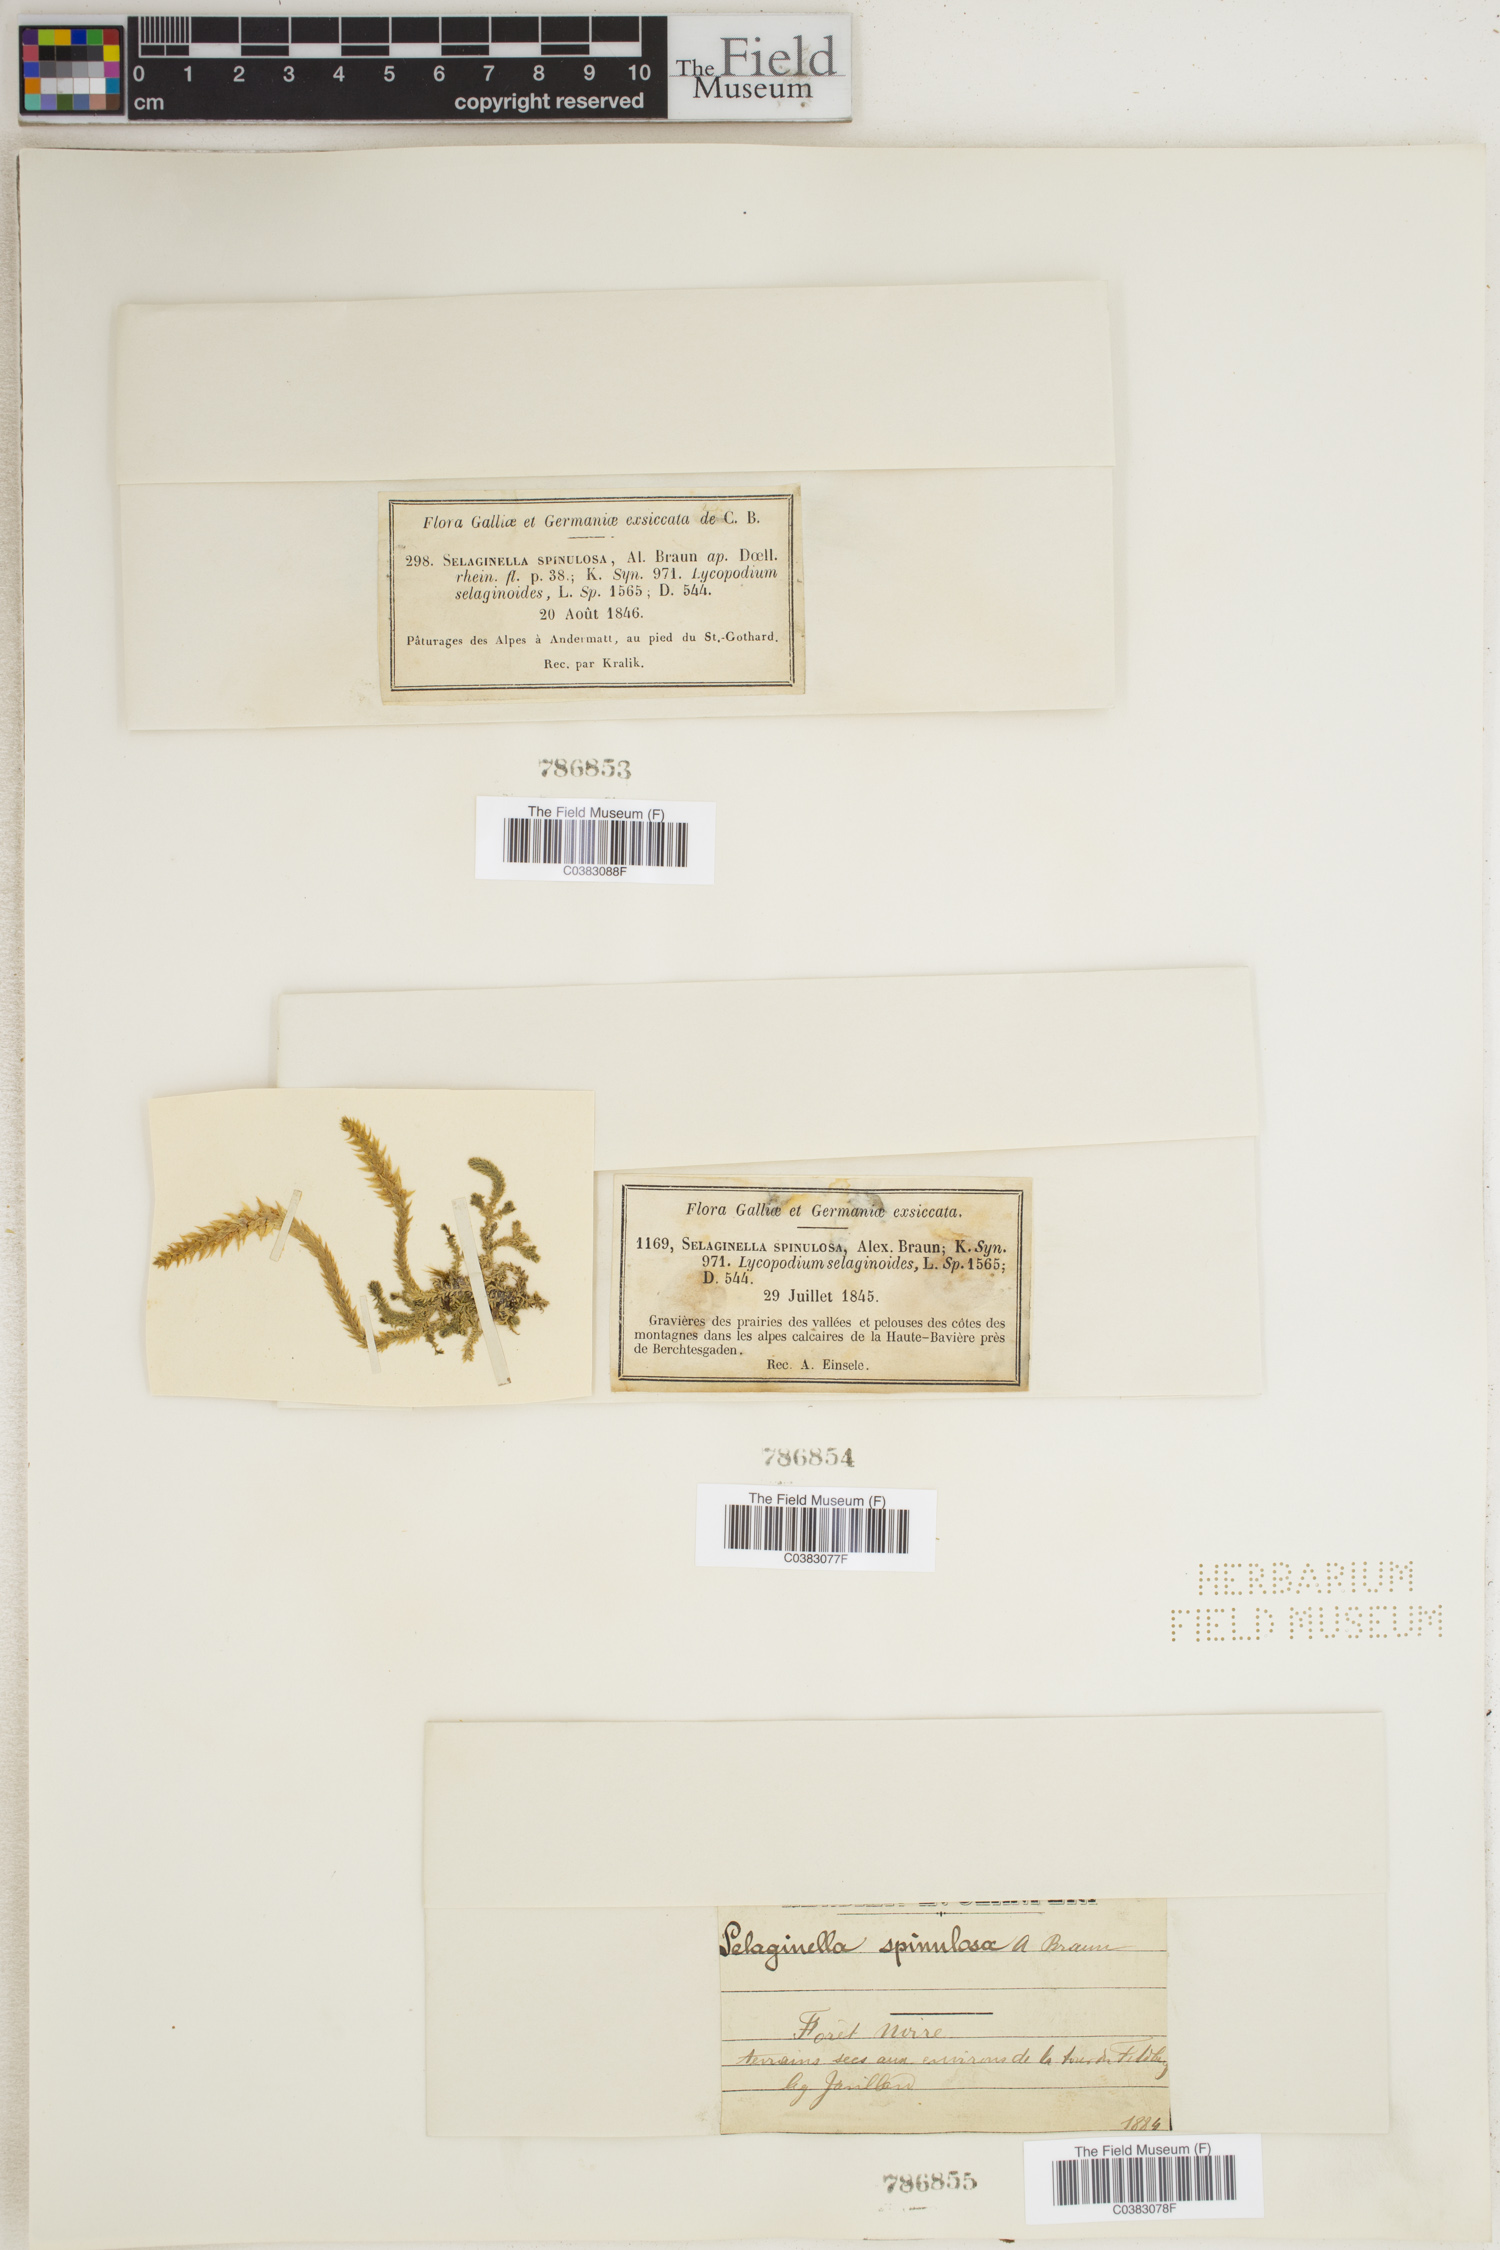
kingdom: Plantae
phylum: Tracheophyta
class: Lycopodiopsida
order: Selaginellales
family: Selaginellaceae
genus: Selaginella
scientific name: Selaginella selaginoides
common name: Prickly mountain-moss
